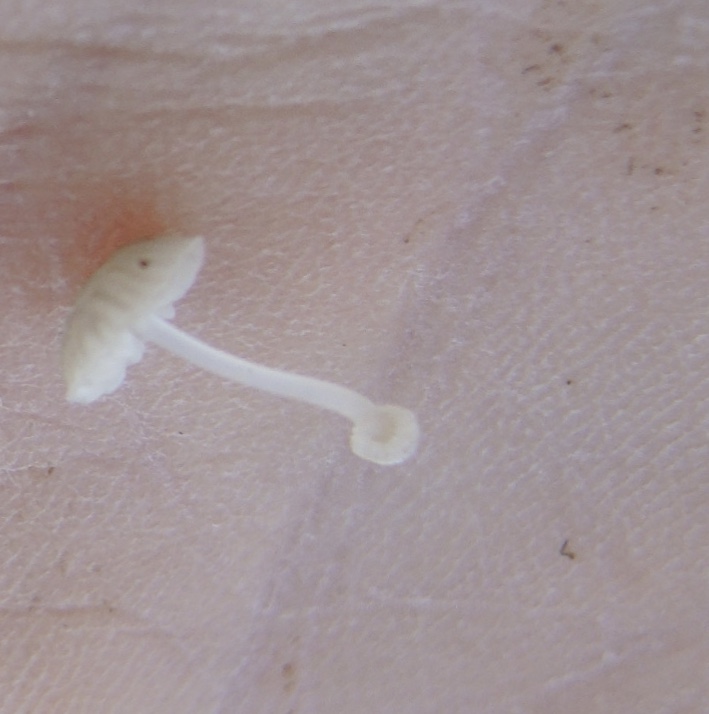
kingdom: Fungi
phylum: Basidiomycota
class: Agaricomycetes
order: Agaricales
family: Mycenaceae
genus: Mycena
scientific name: Mycena bulbosa
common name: siv-huesvamp
